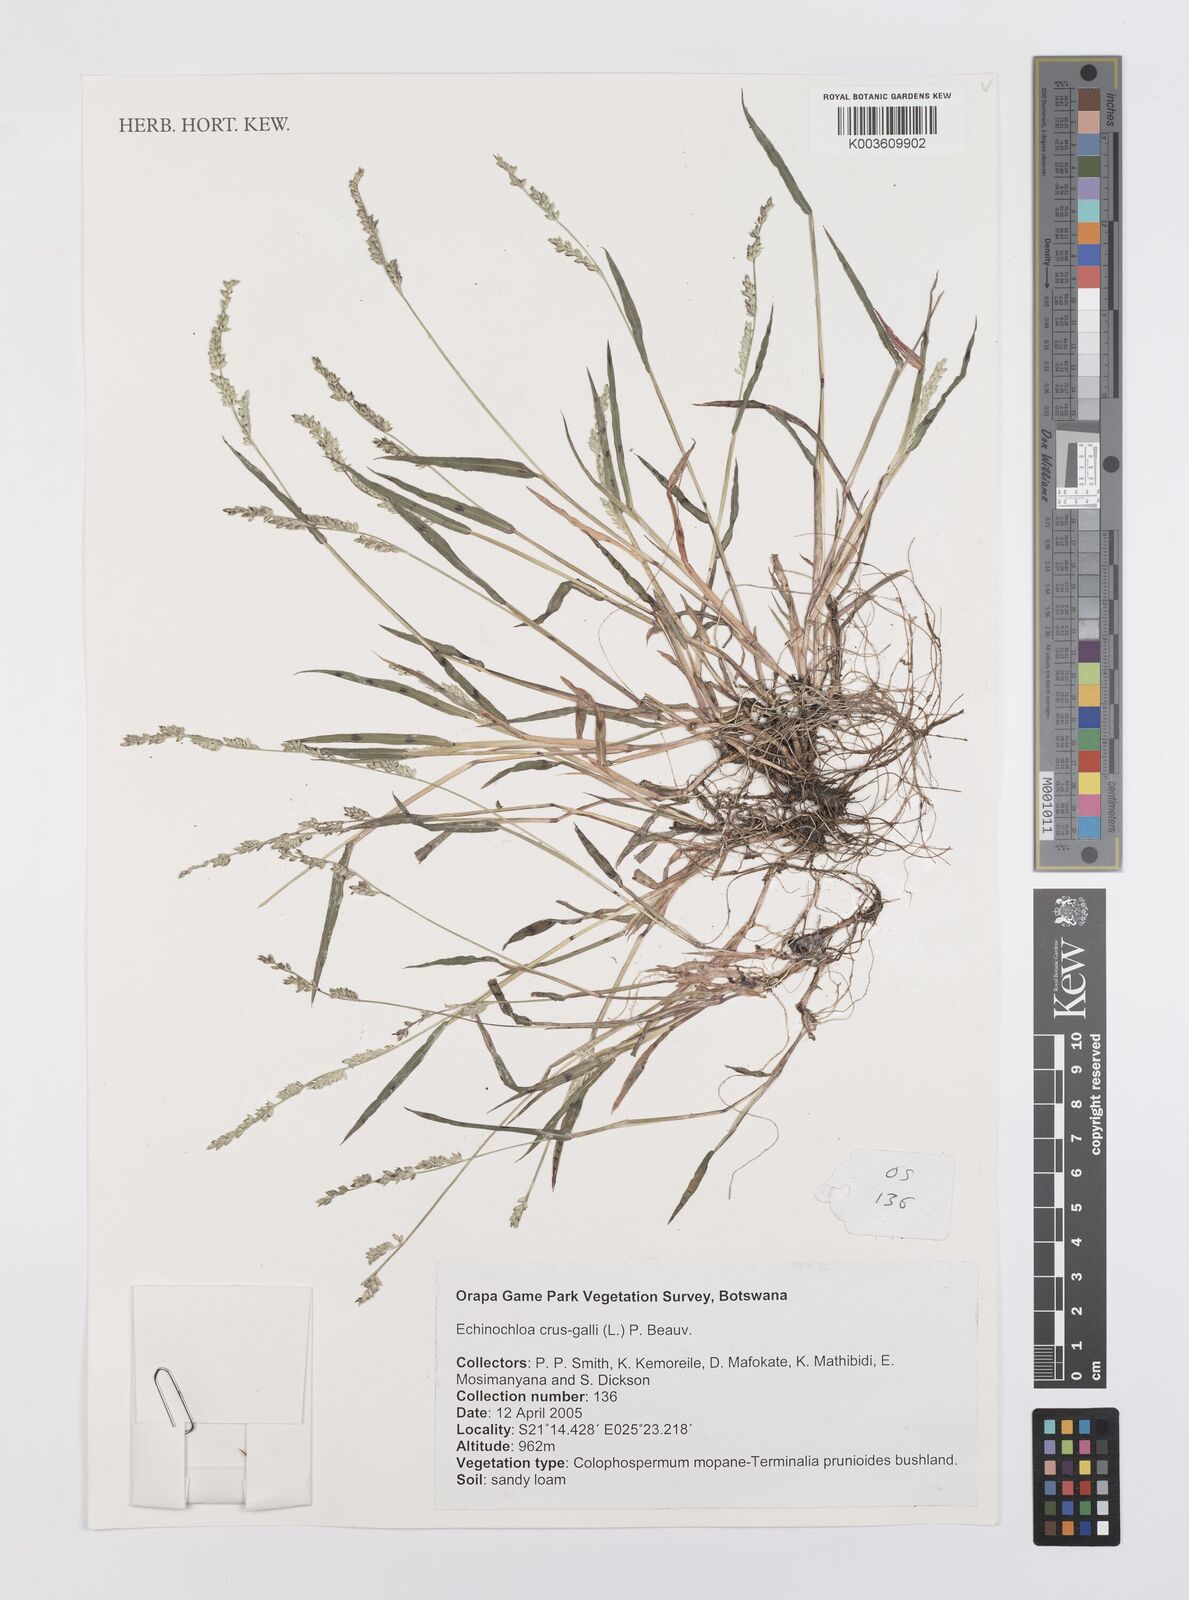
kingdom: Plantae
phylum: Tracheophyta
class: Liliopsida
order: Poales
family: Poaceae
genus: Echinochloa
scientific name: Echinochloa crus-galli
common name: Cockspur
